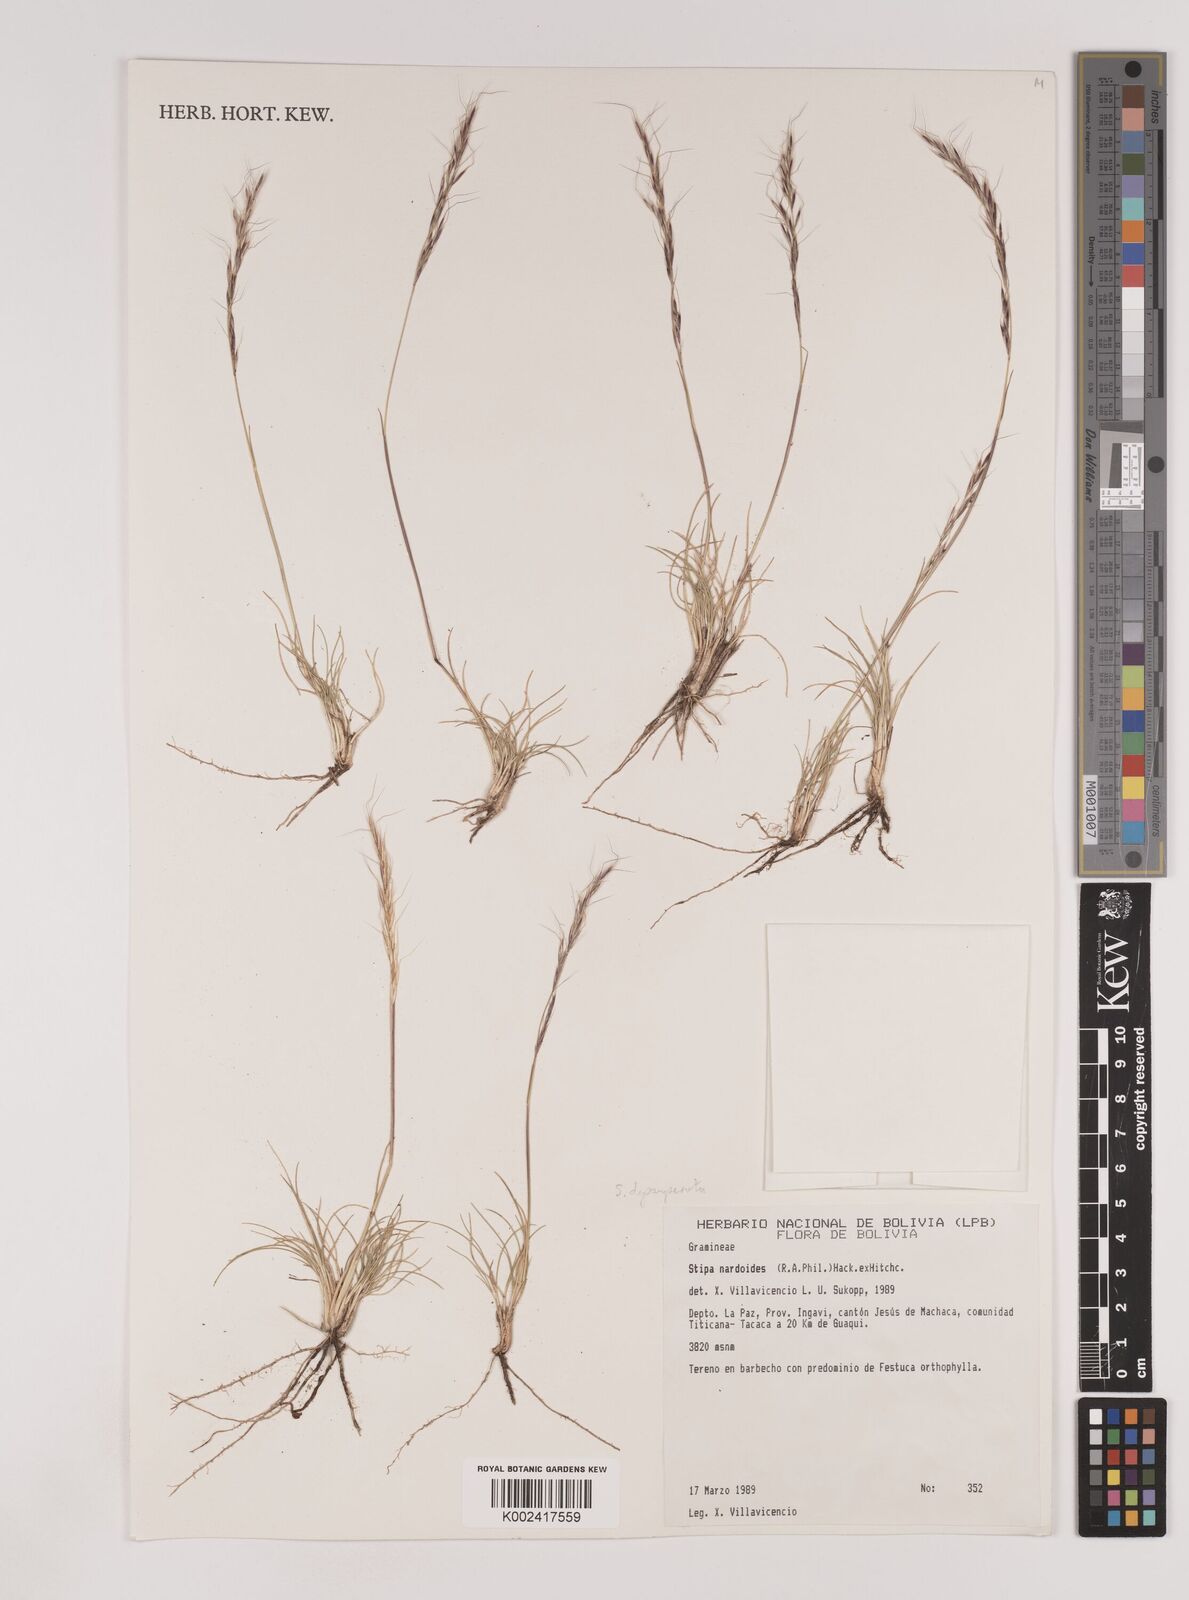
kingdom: Plantae
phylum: Tracheophyta
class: Liliopsida
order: Poales
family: Poaceae
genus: Nassella
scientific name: Nassella rupestris
